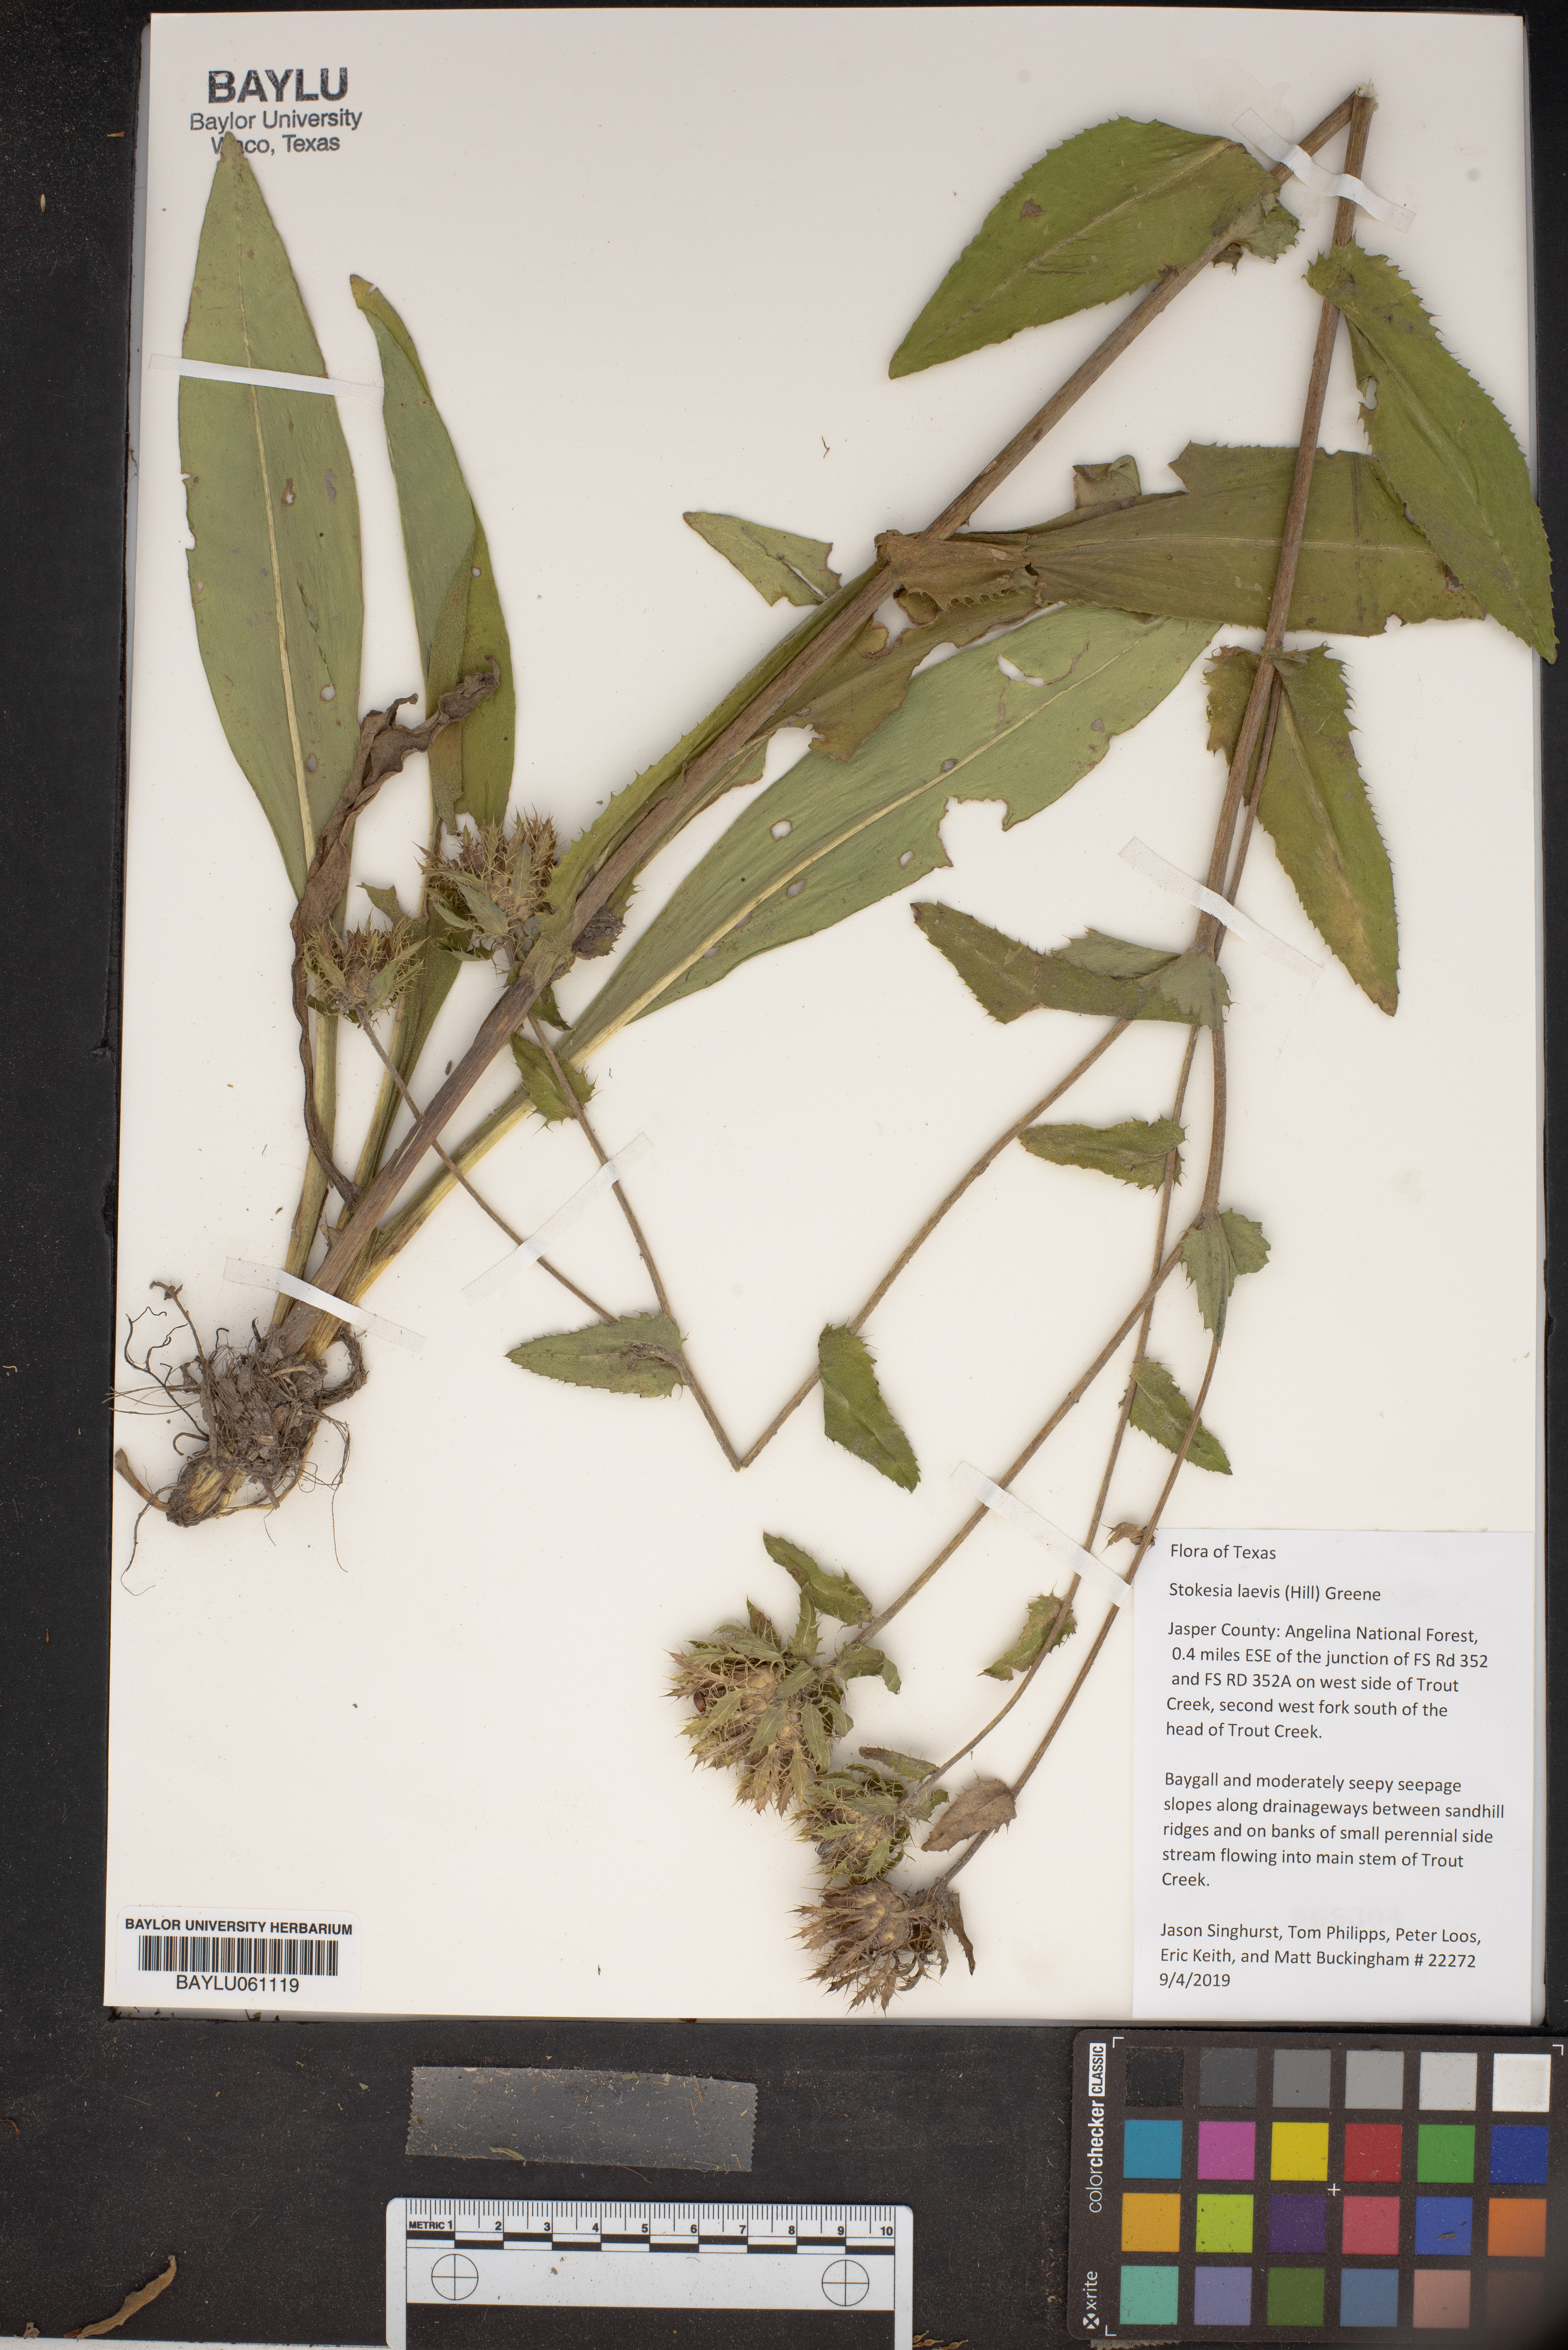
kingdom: Plantae
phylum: Tracheophyta
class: Magnoliopsida
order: Asterales
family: Asteraceae
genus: Stokesia
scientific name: Stokesia laevis
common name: Stokes'-aster
